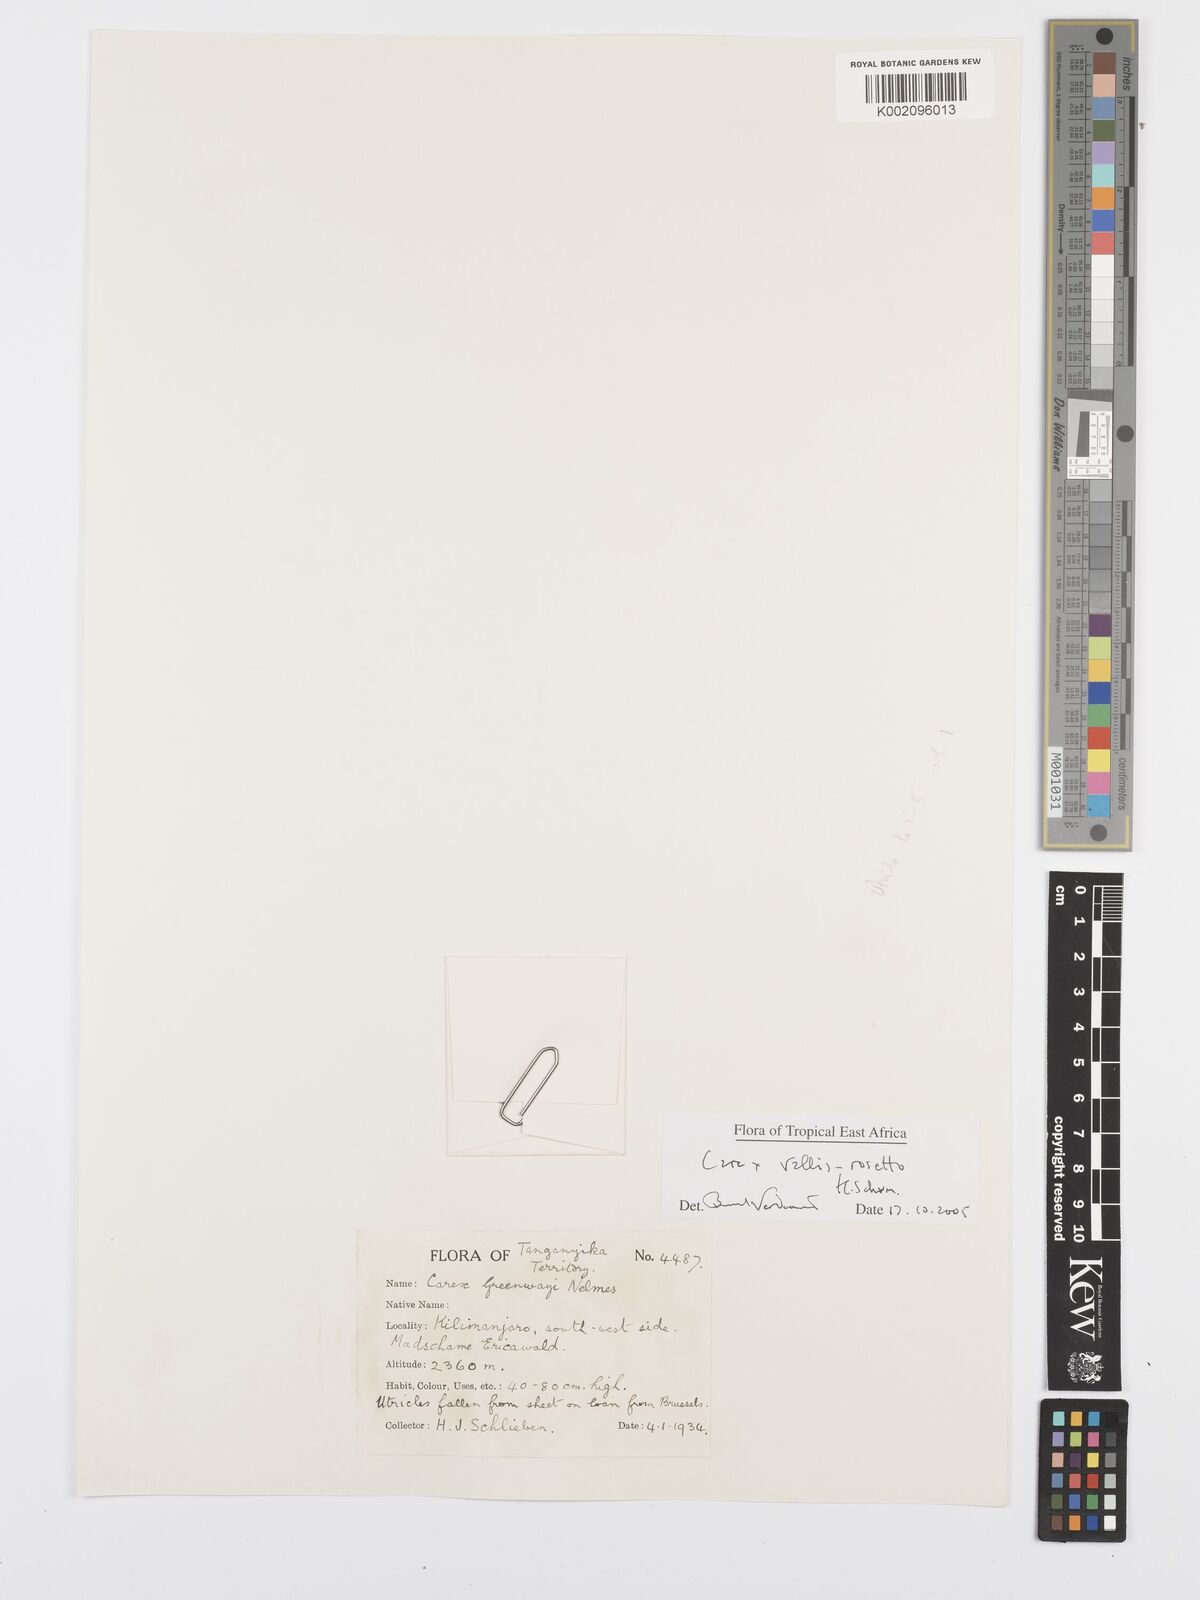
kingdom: Plantae
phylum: Tracheophyta
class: Liliopsida
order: Poales
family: Cyperaceae
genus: Carex
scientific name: Carex vallis-rosetto
